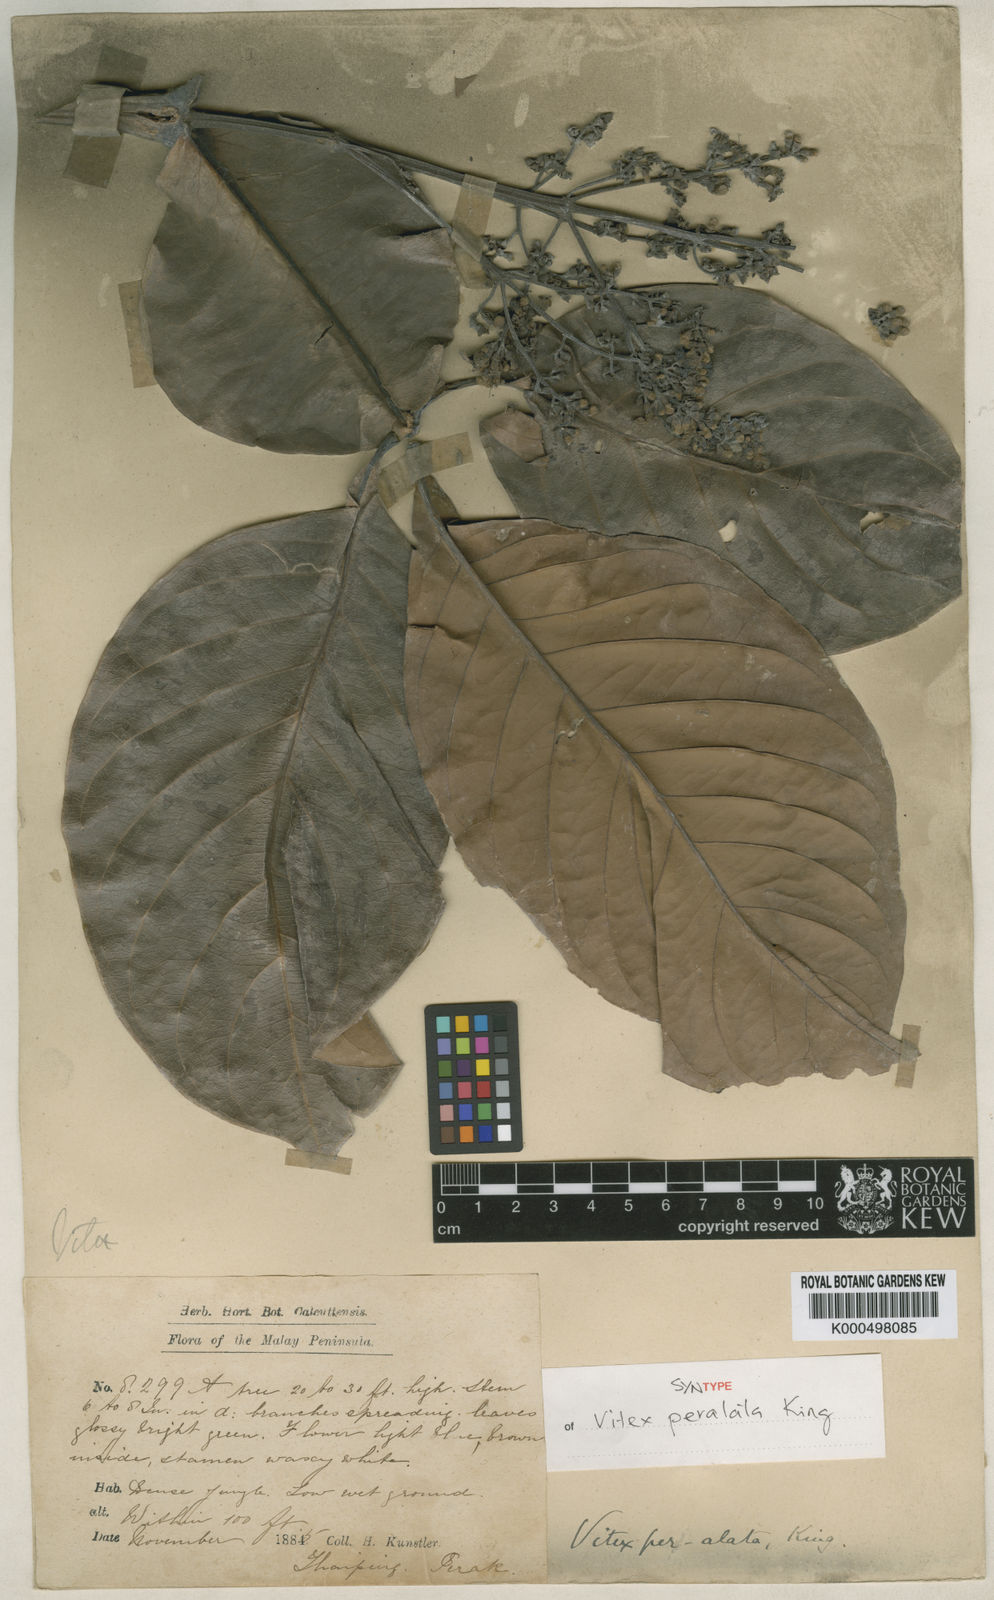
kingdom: Plantae
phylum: Tracheophyta
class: Magnoliopsida
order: Lamiales
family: Lamiaceae
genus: Teijsmanniodendron
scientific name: Teijsmanniodendron pteropodum
